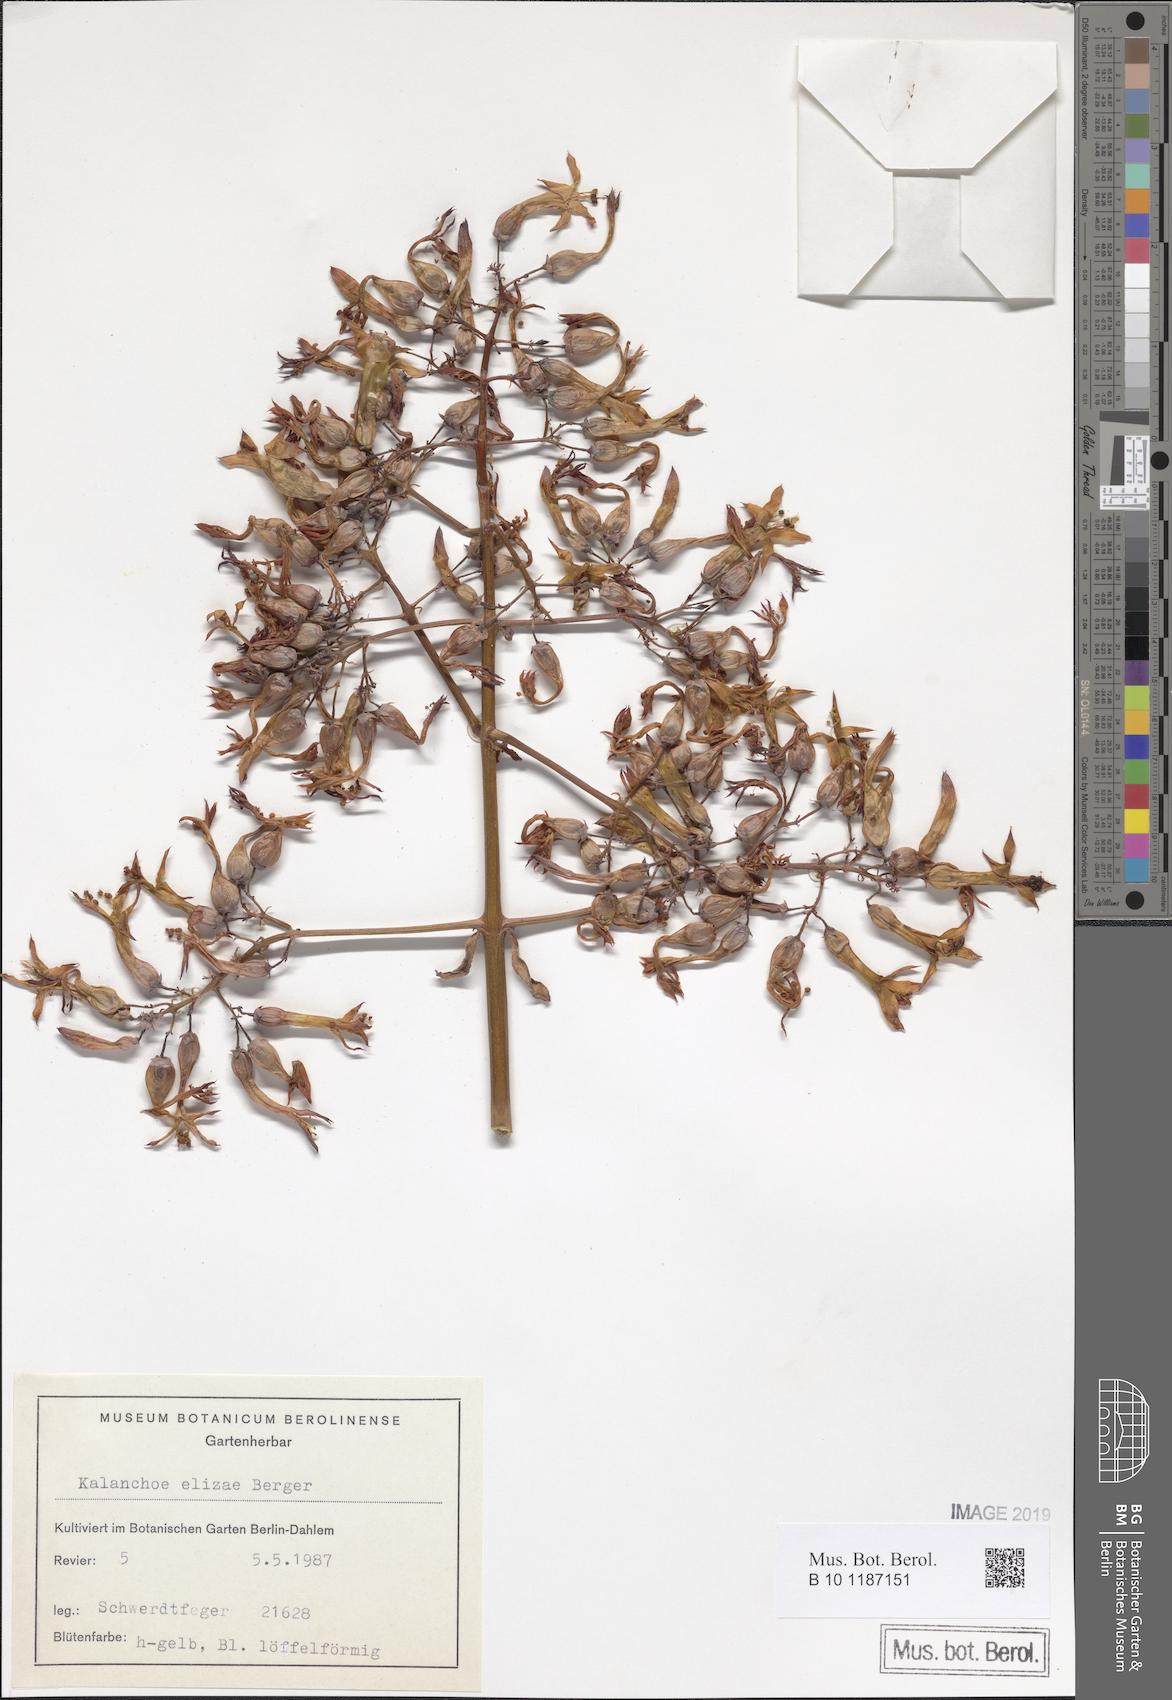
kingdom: Plantae
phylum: Tracheophyta
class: Magnoliopsida
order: Saxifragales
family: Crassulaceae
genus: Kalanchoe
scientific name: Kalanchoe elizae
